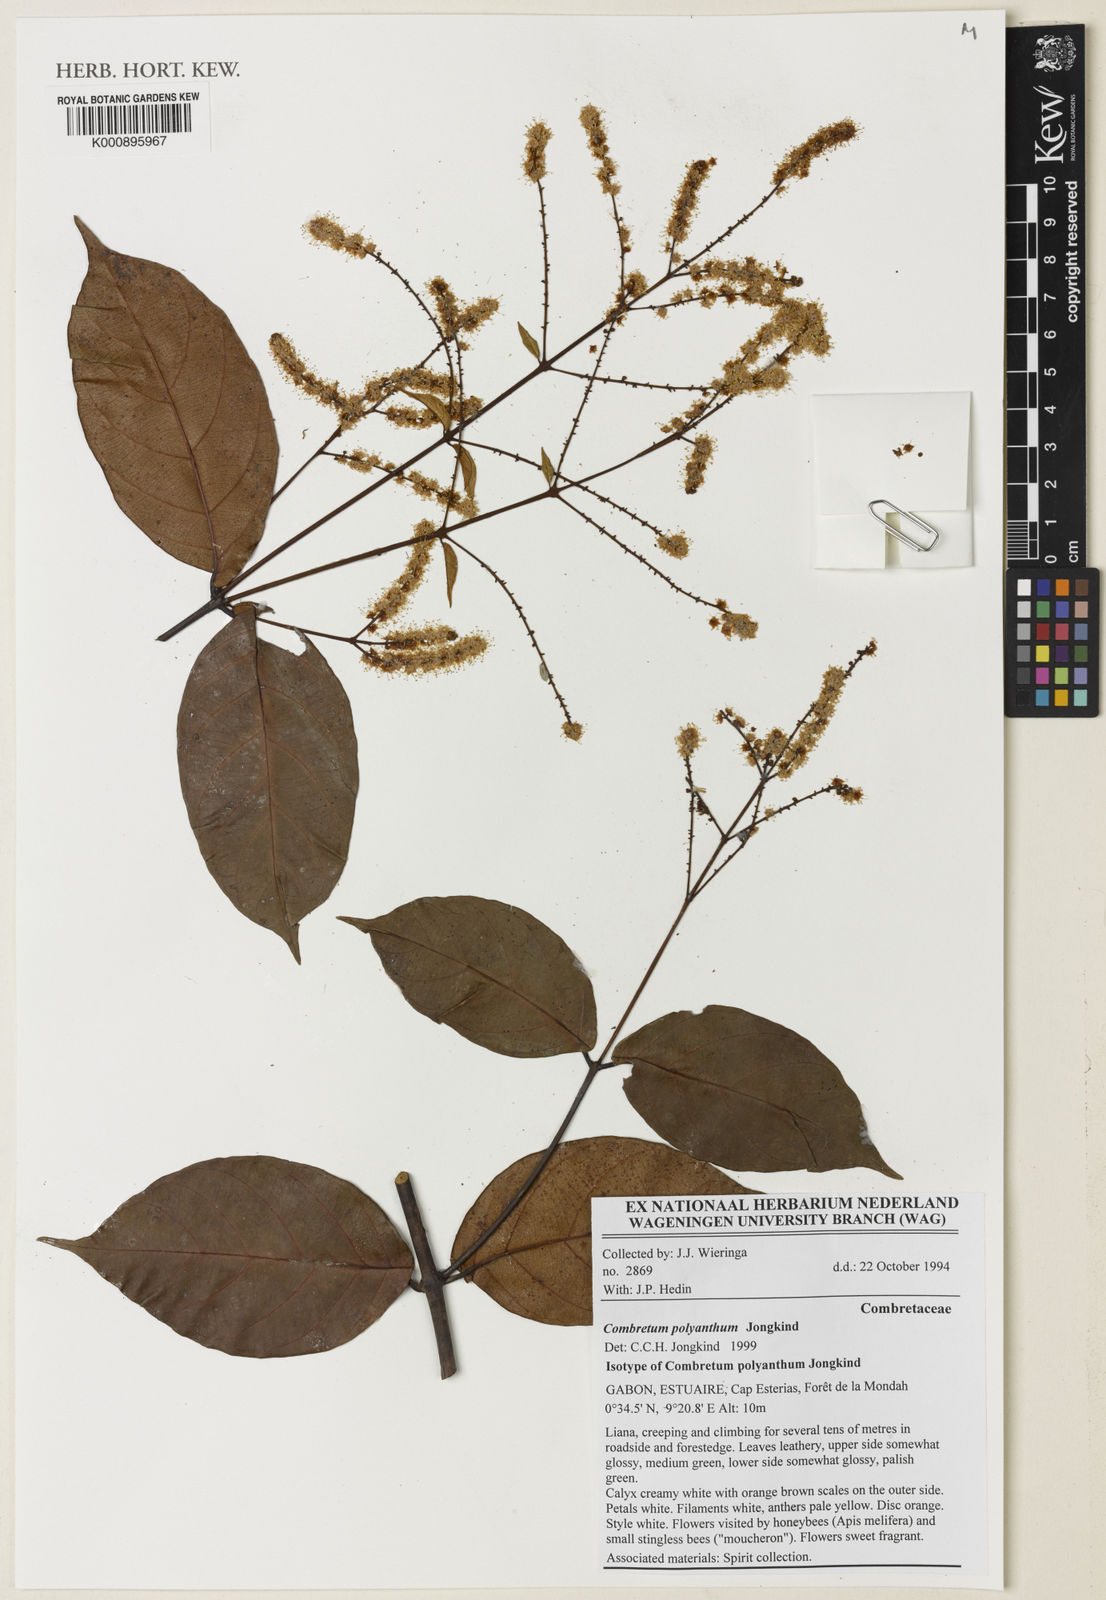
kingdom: Plantae
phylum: Tracheophyta
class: Magnoliopsida
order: Myrtales
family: Combretaceae
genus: Combretum
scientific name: Combretum polyanthum
